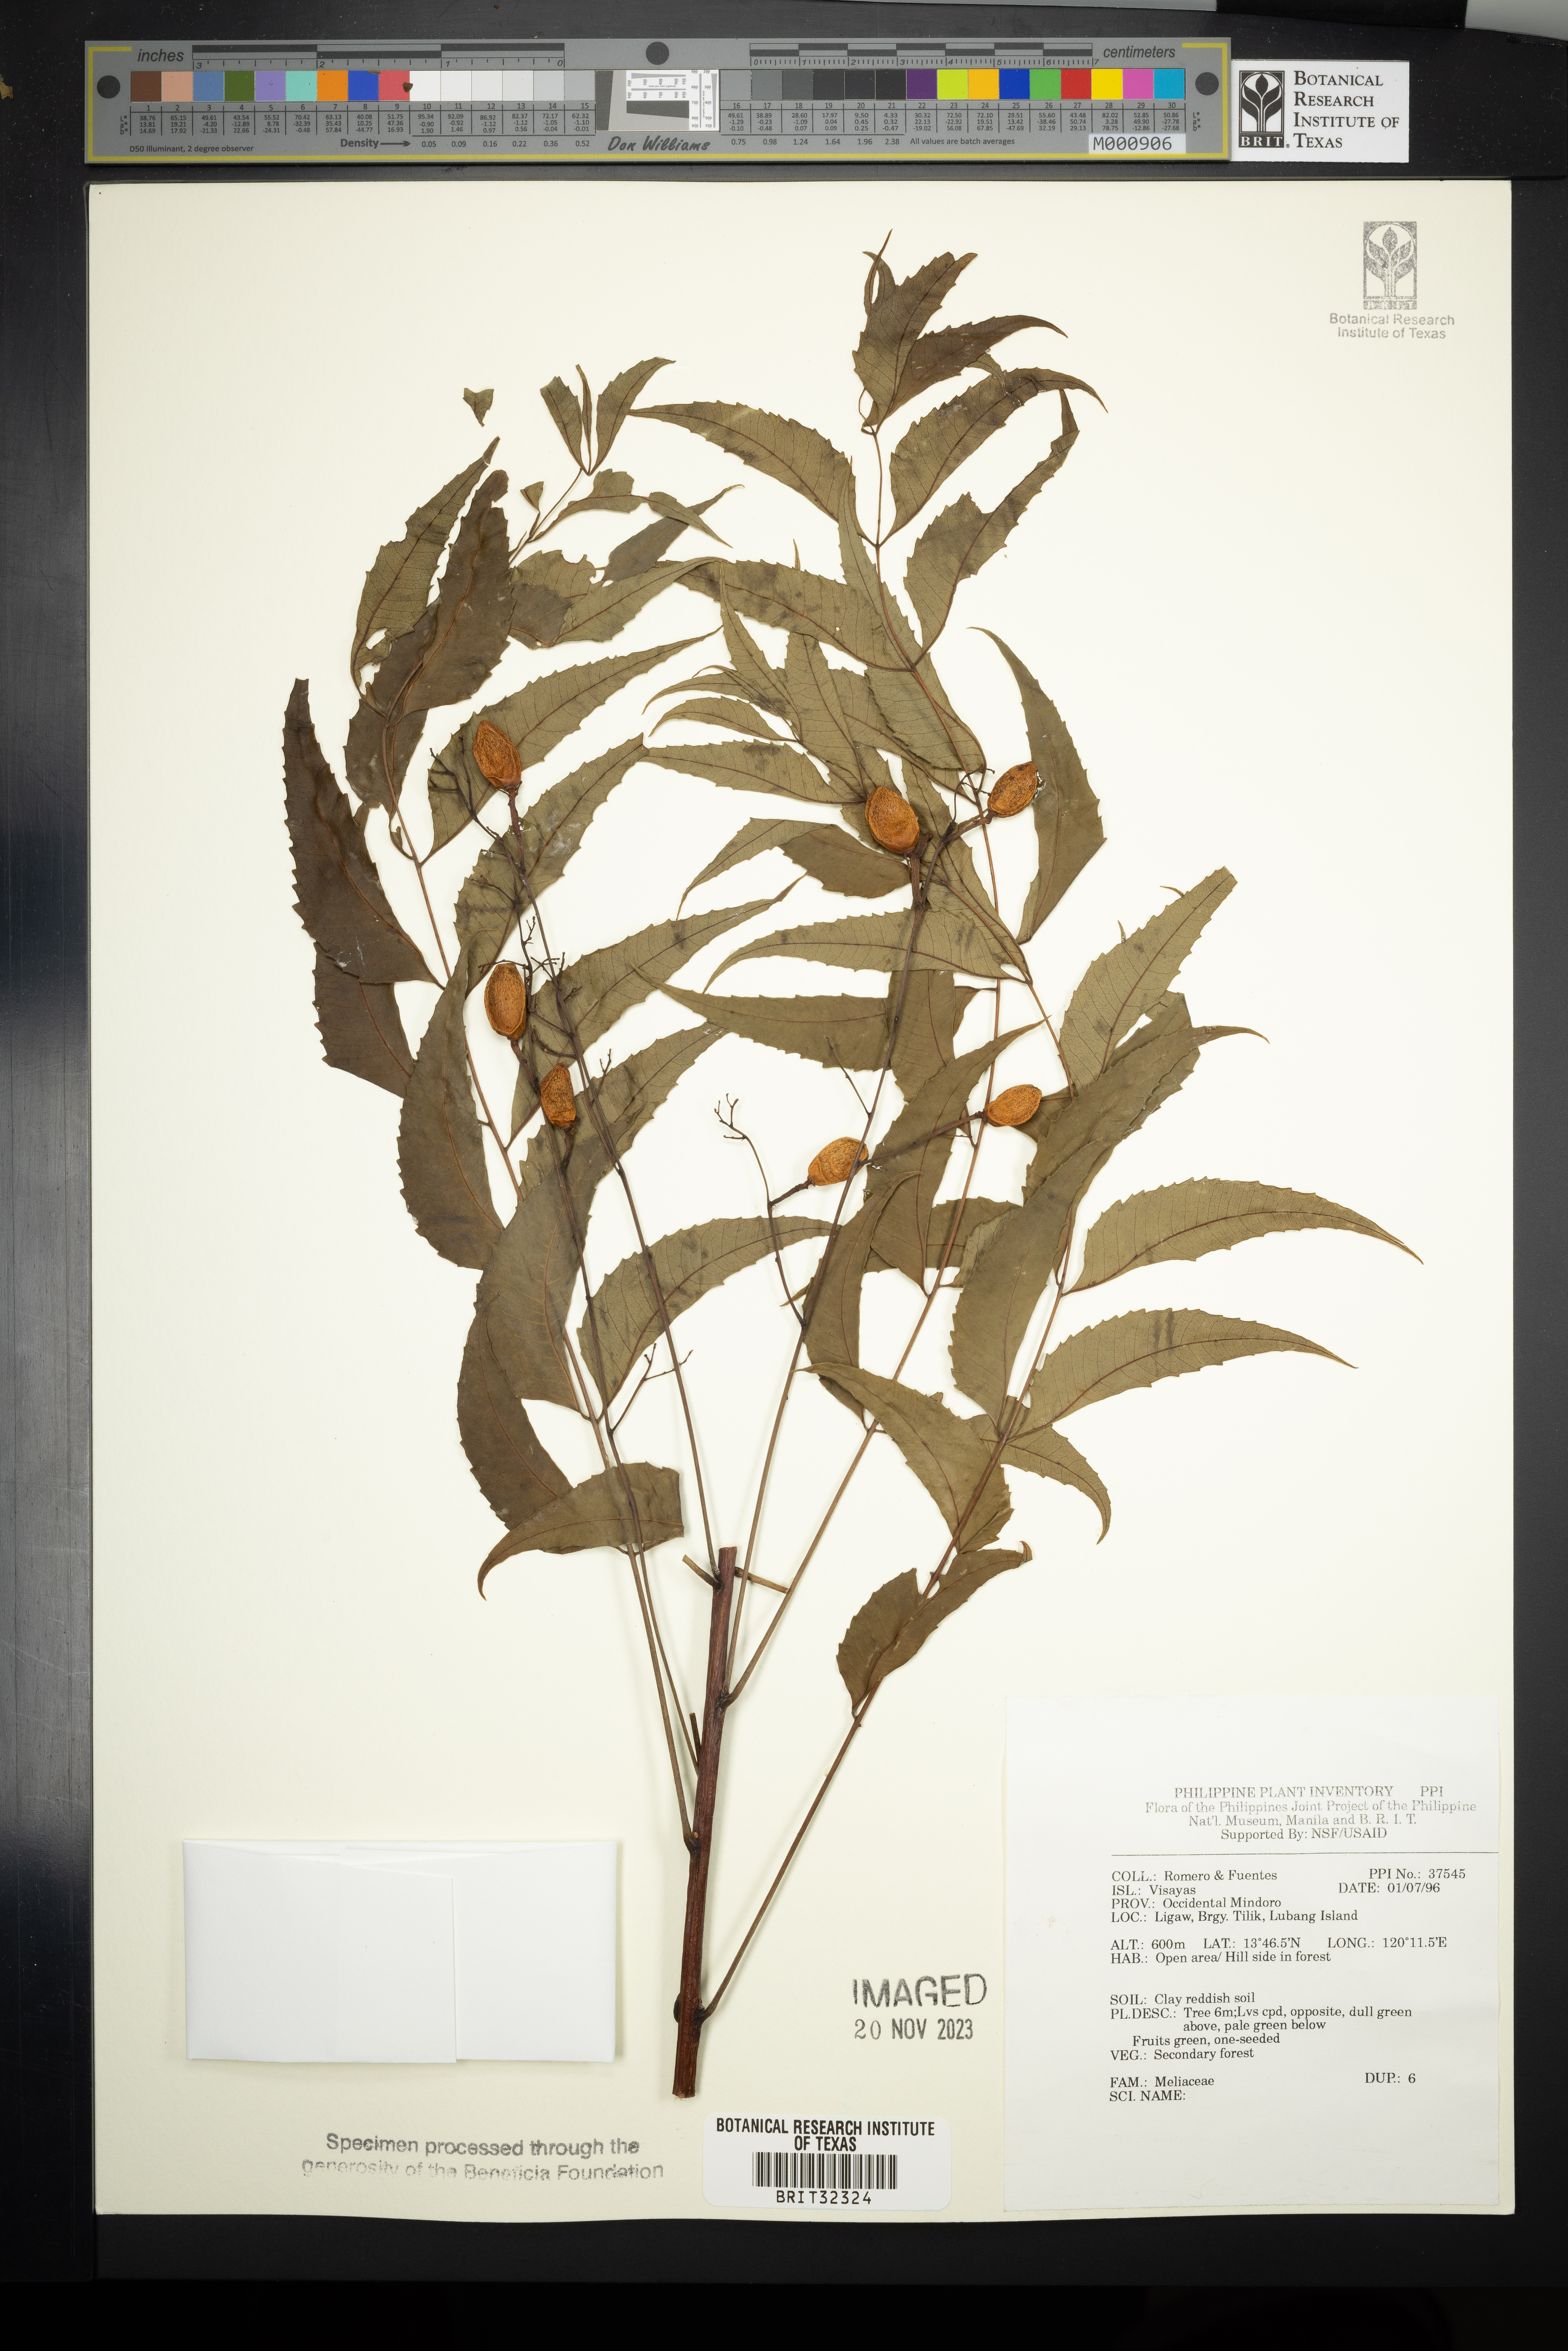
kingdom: Plantae
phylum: Tracheophyta
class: Magnoliopsida
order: Sapindales
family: Meliaceae
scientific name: Meliaceae
